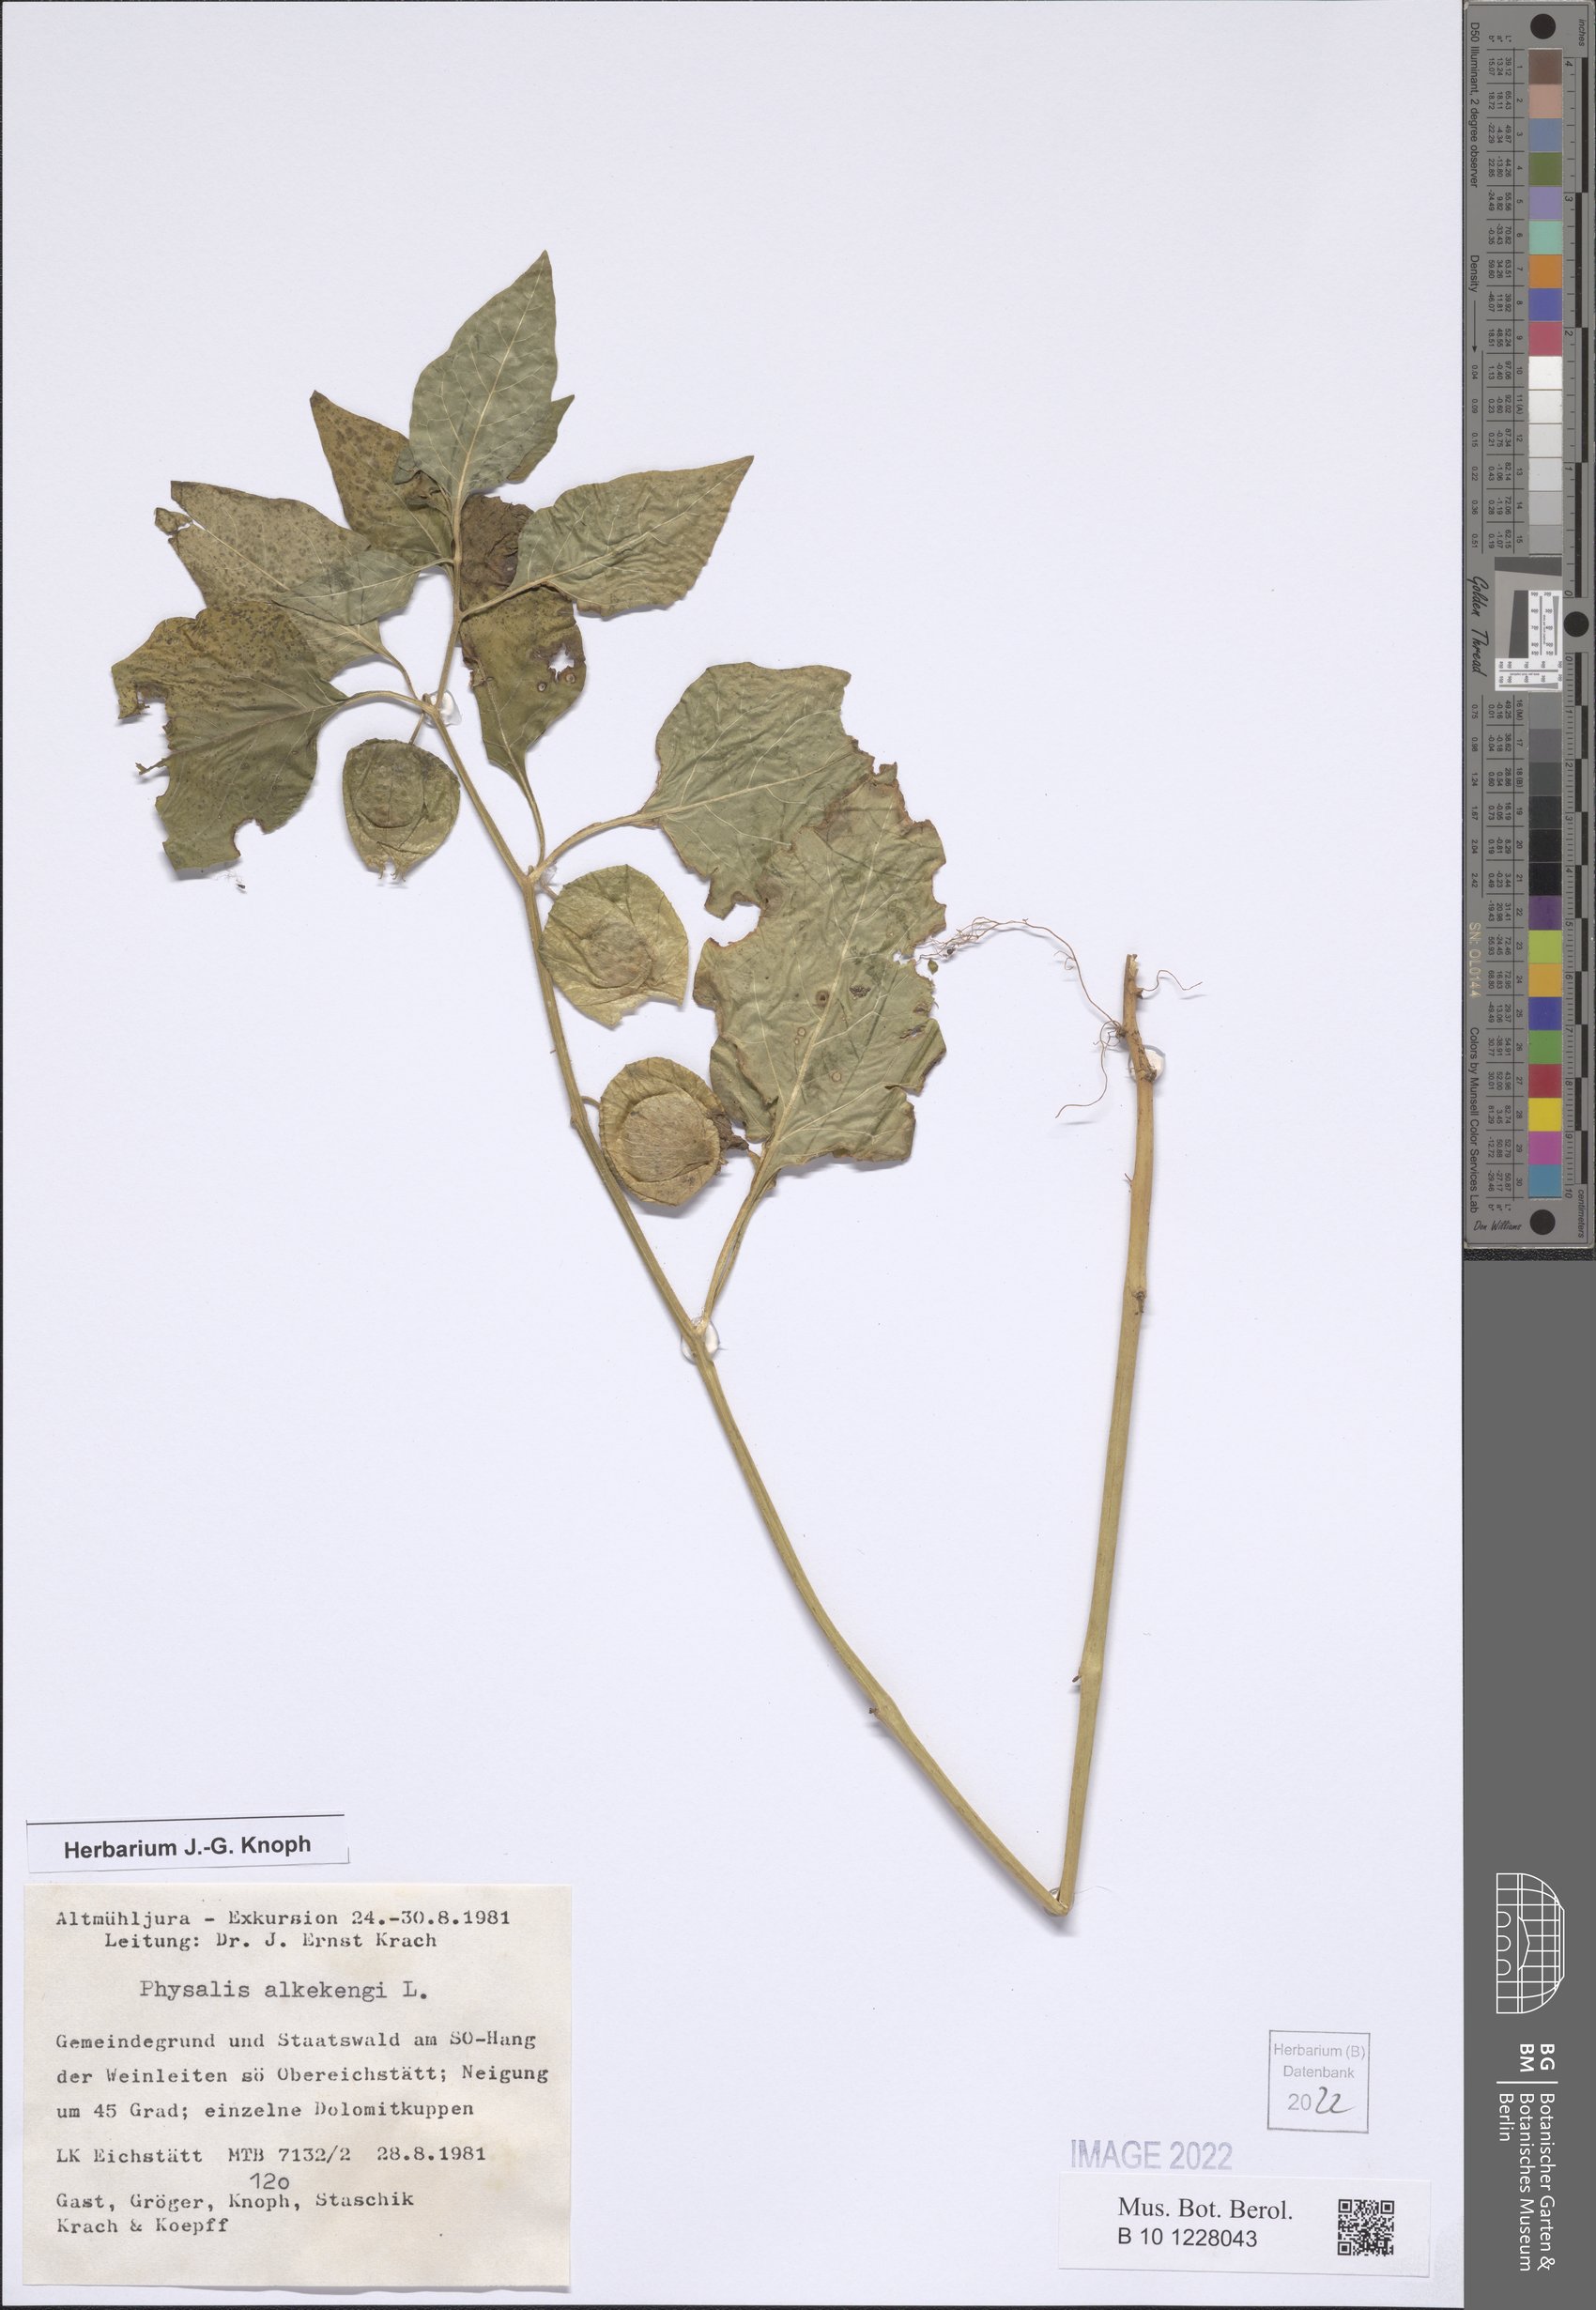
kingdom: Plantae
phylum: Tracheophyta
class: Magnoliopsida
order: Solanales
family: Solanaceae
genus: Alkekengi
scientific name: Alkekengi officinarum
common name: Japanese-lantern
